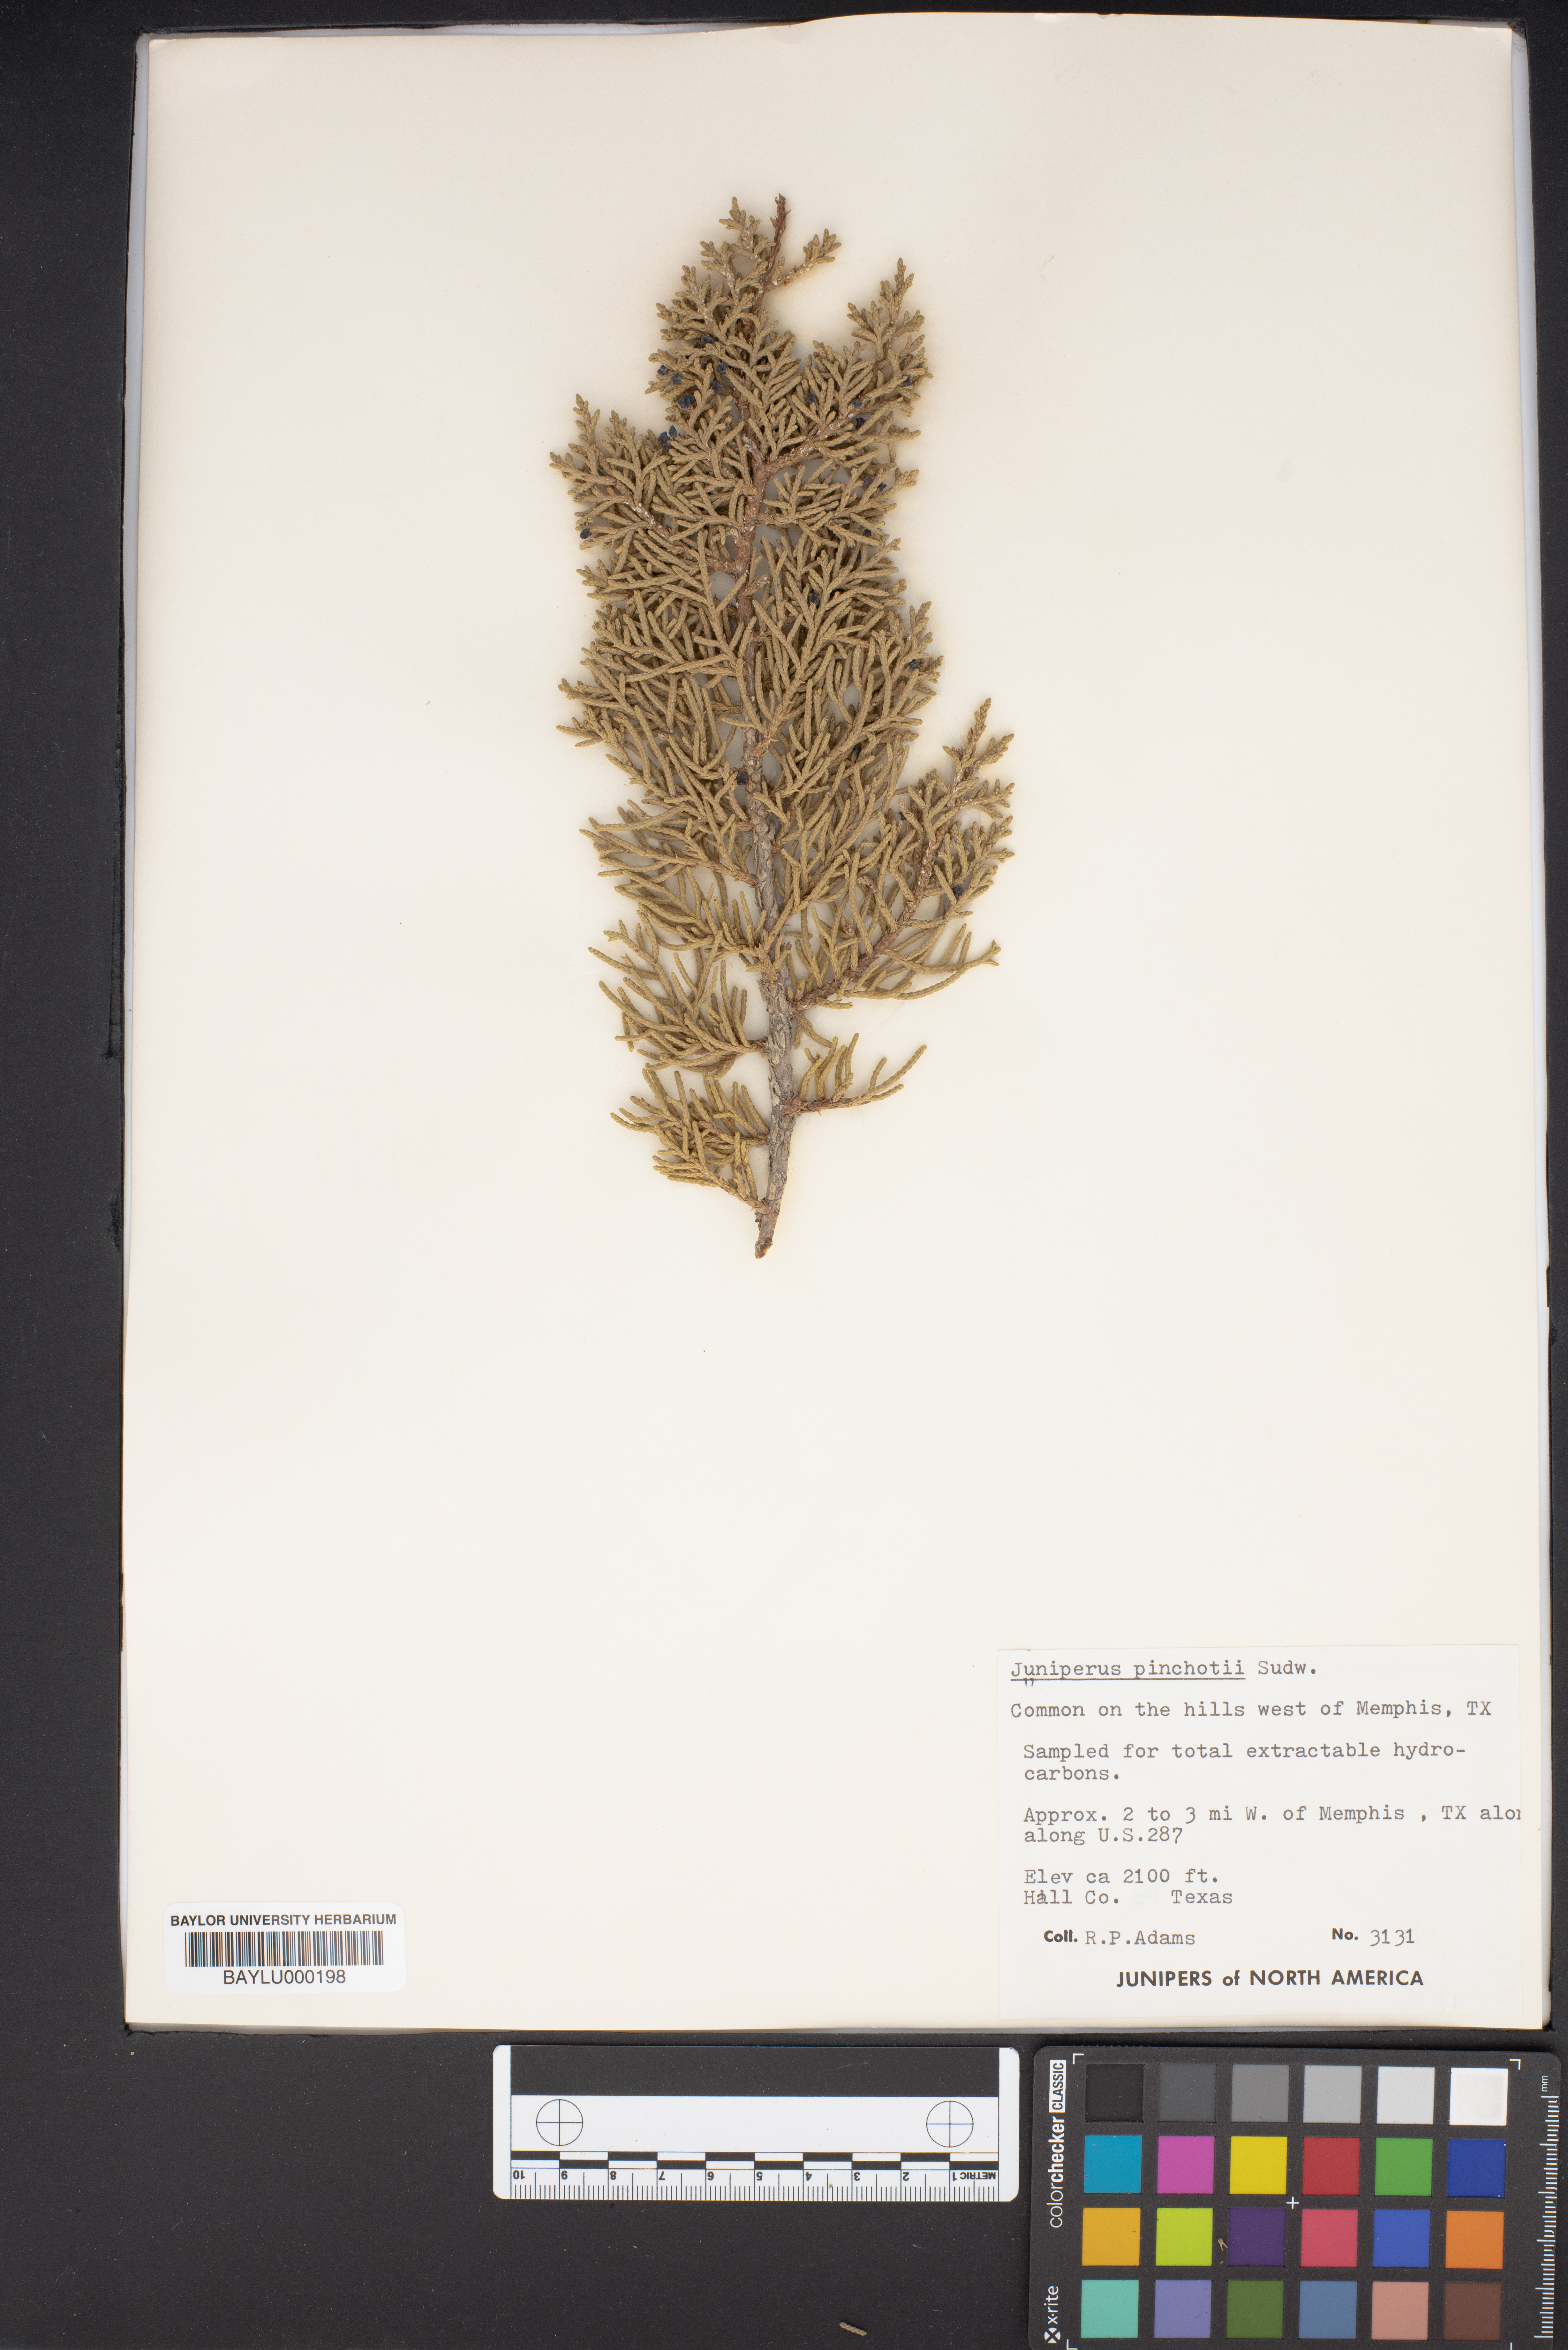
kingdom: Plantae
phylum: Tracheophyta
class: Pinopsida
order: Pinales
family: Cupressaceae
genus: Juniperus
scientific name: Juniperus pinchotii
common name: Pinchot juniper
